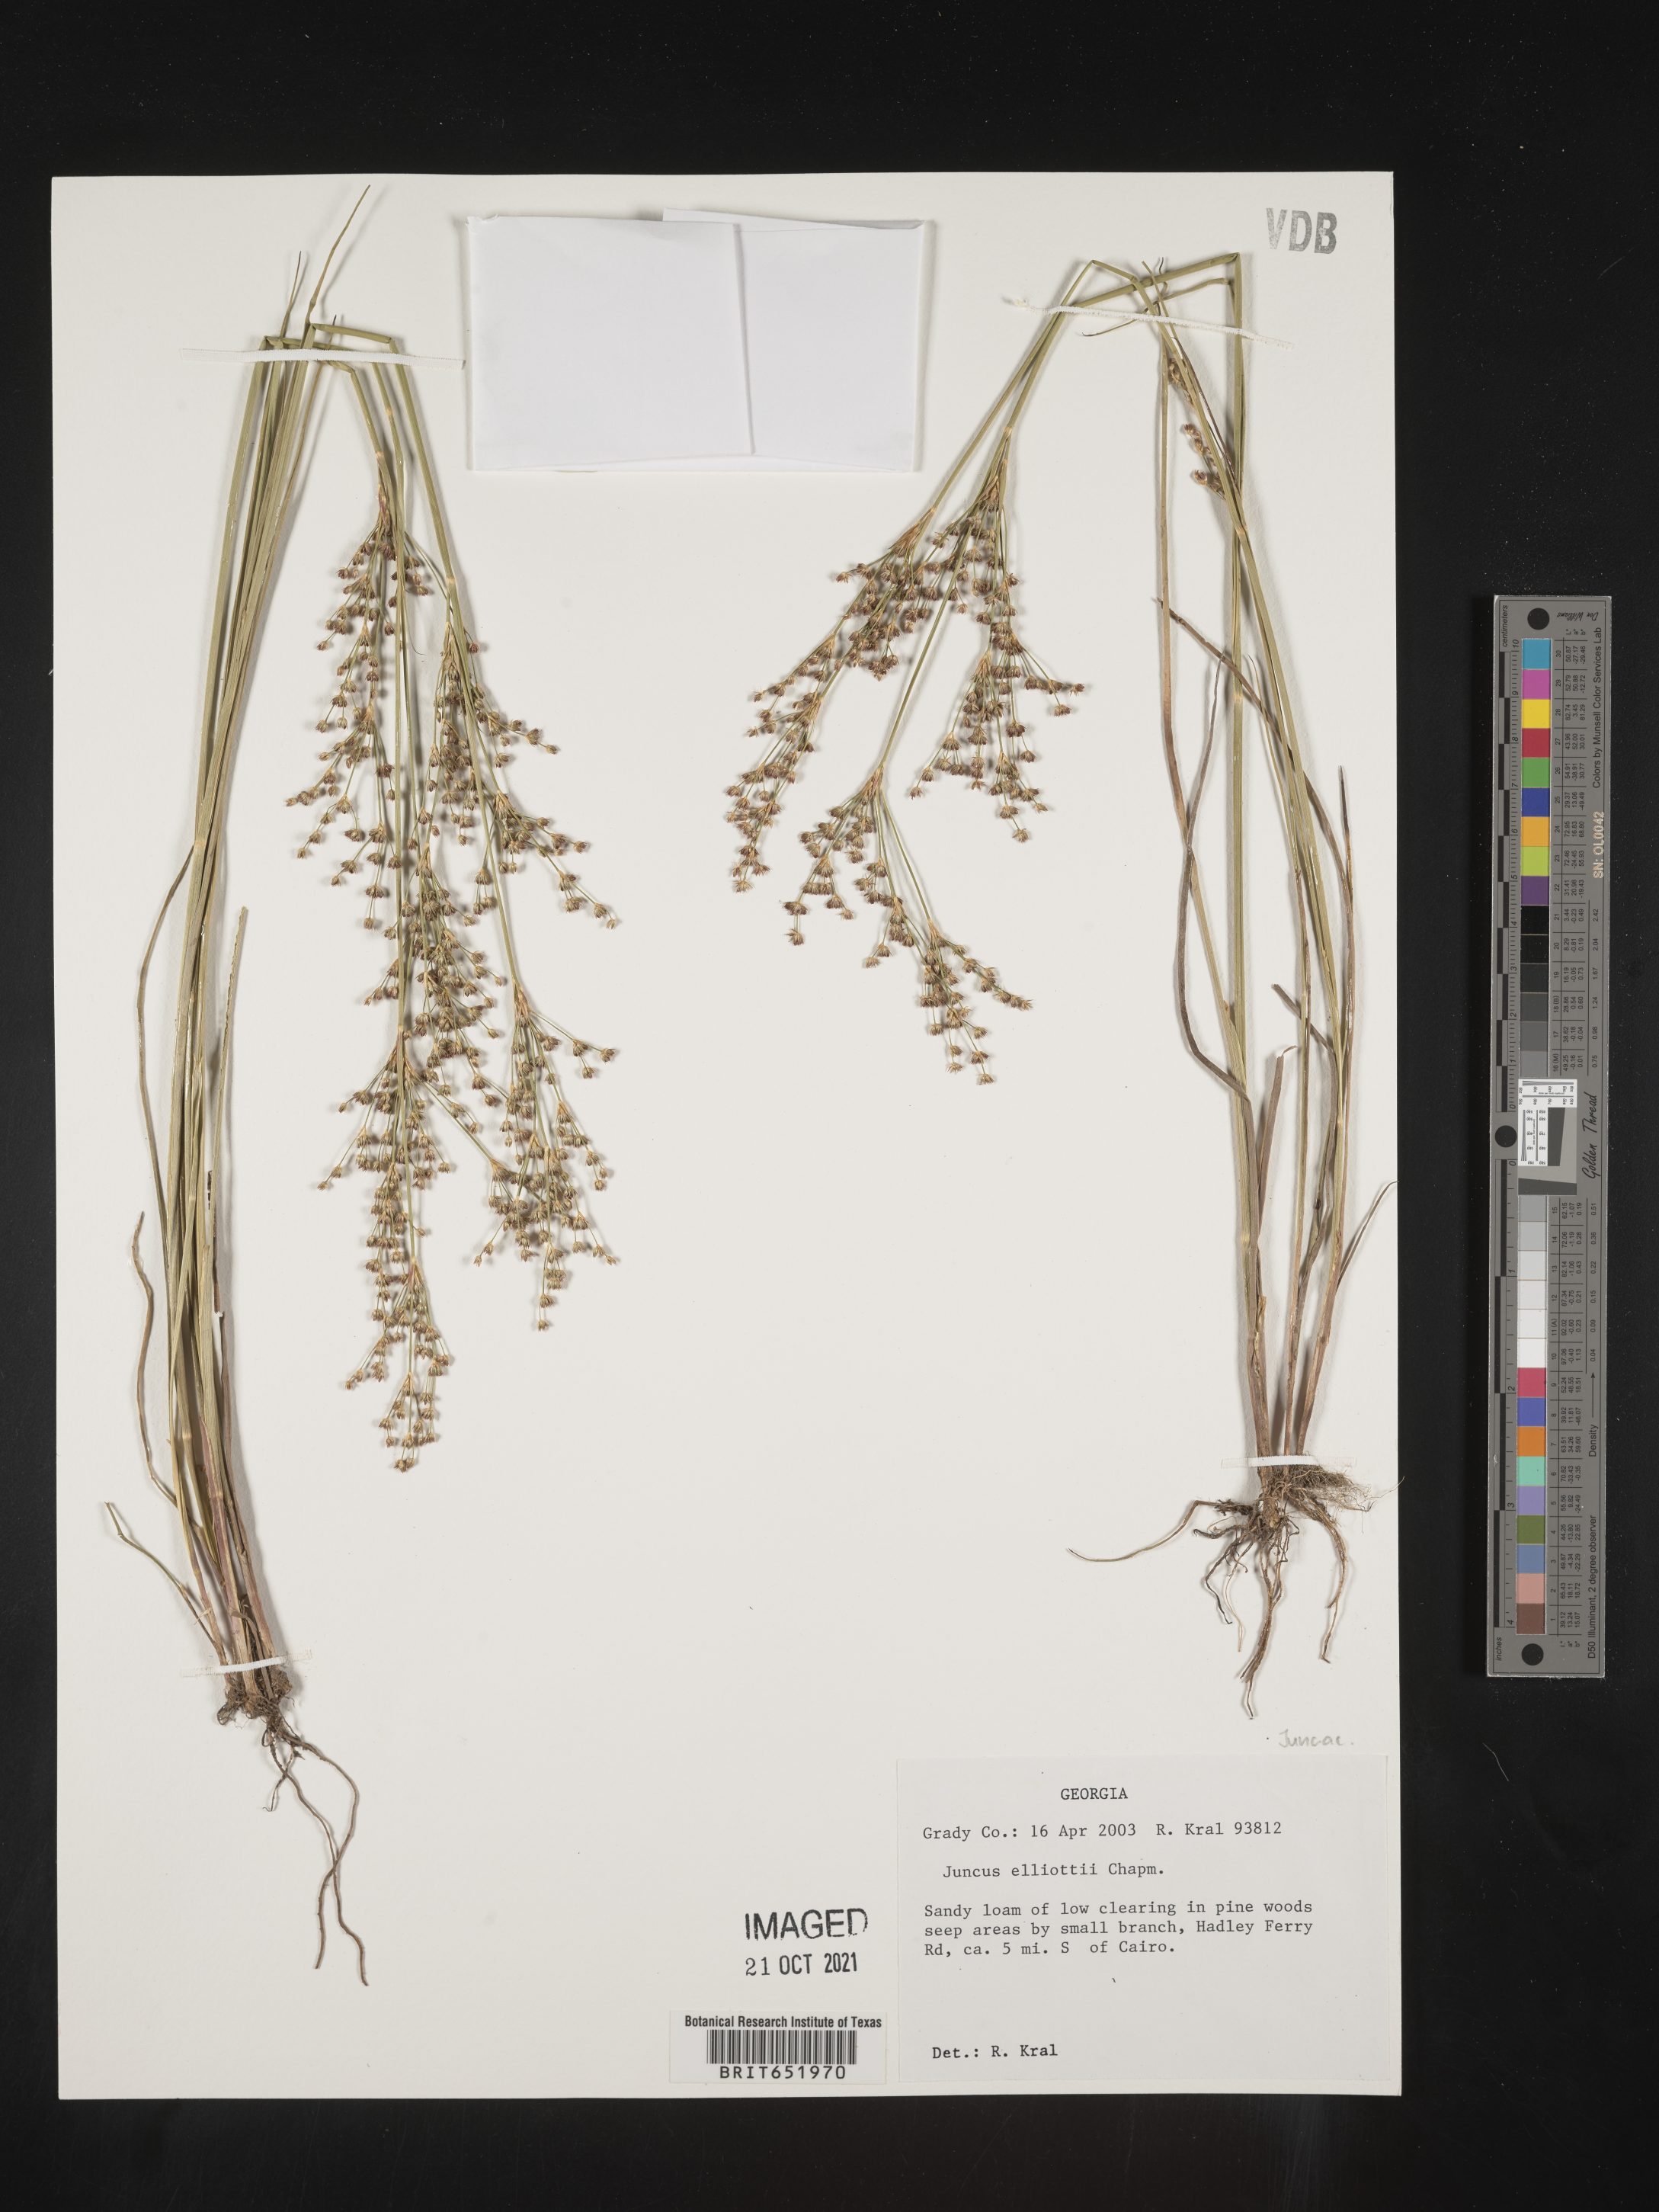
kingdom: Plantae
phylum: Tracheophyta
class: Liliopsida
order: Poales
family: Juncaceae
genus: Juncus
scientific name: Juncus elliottii
